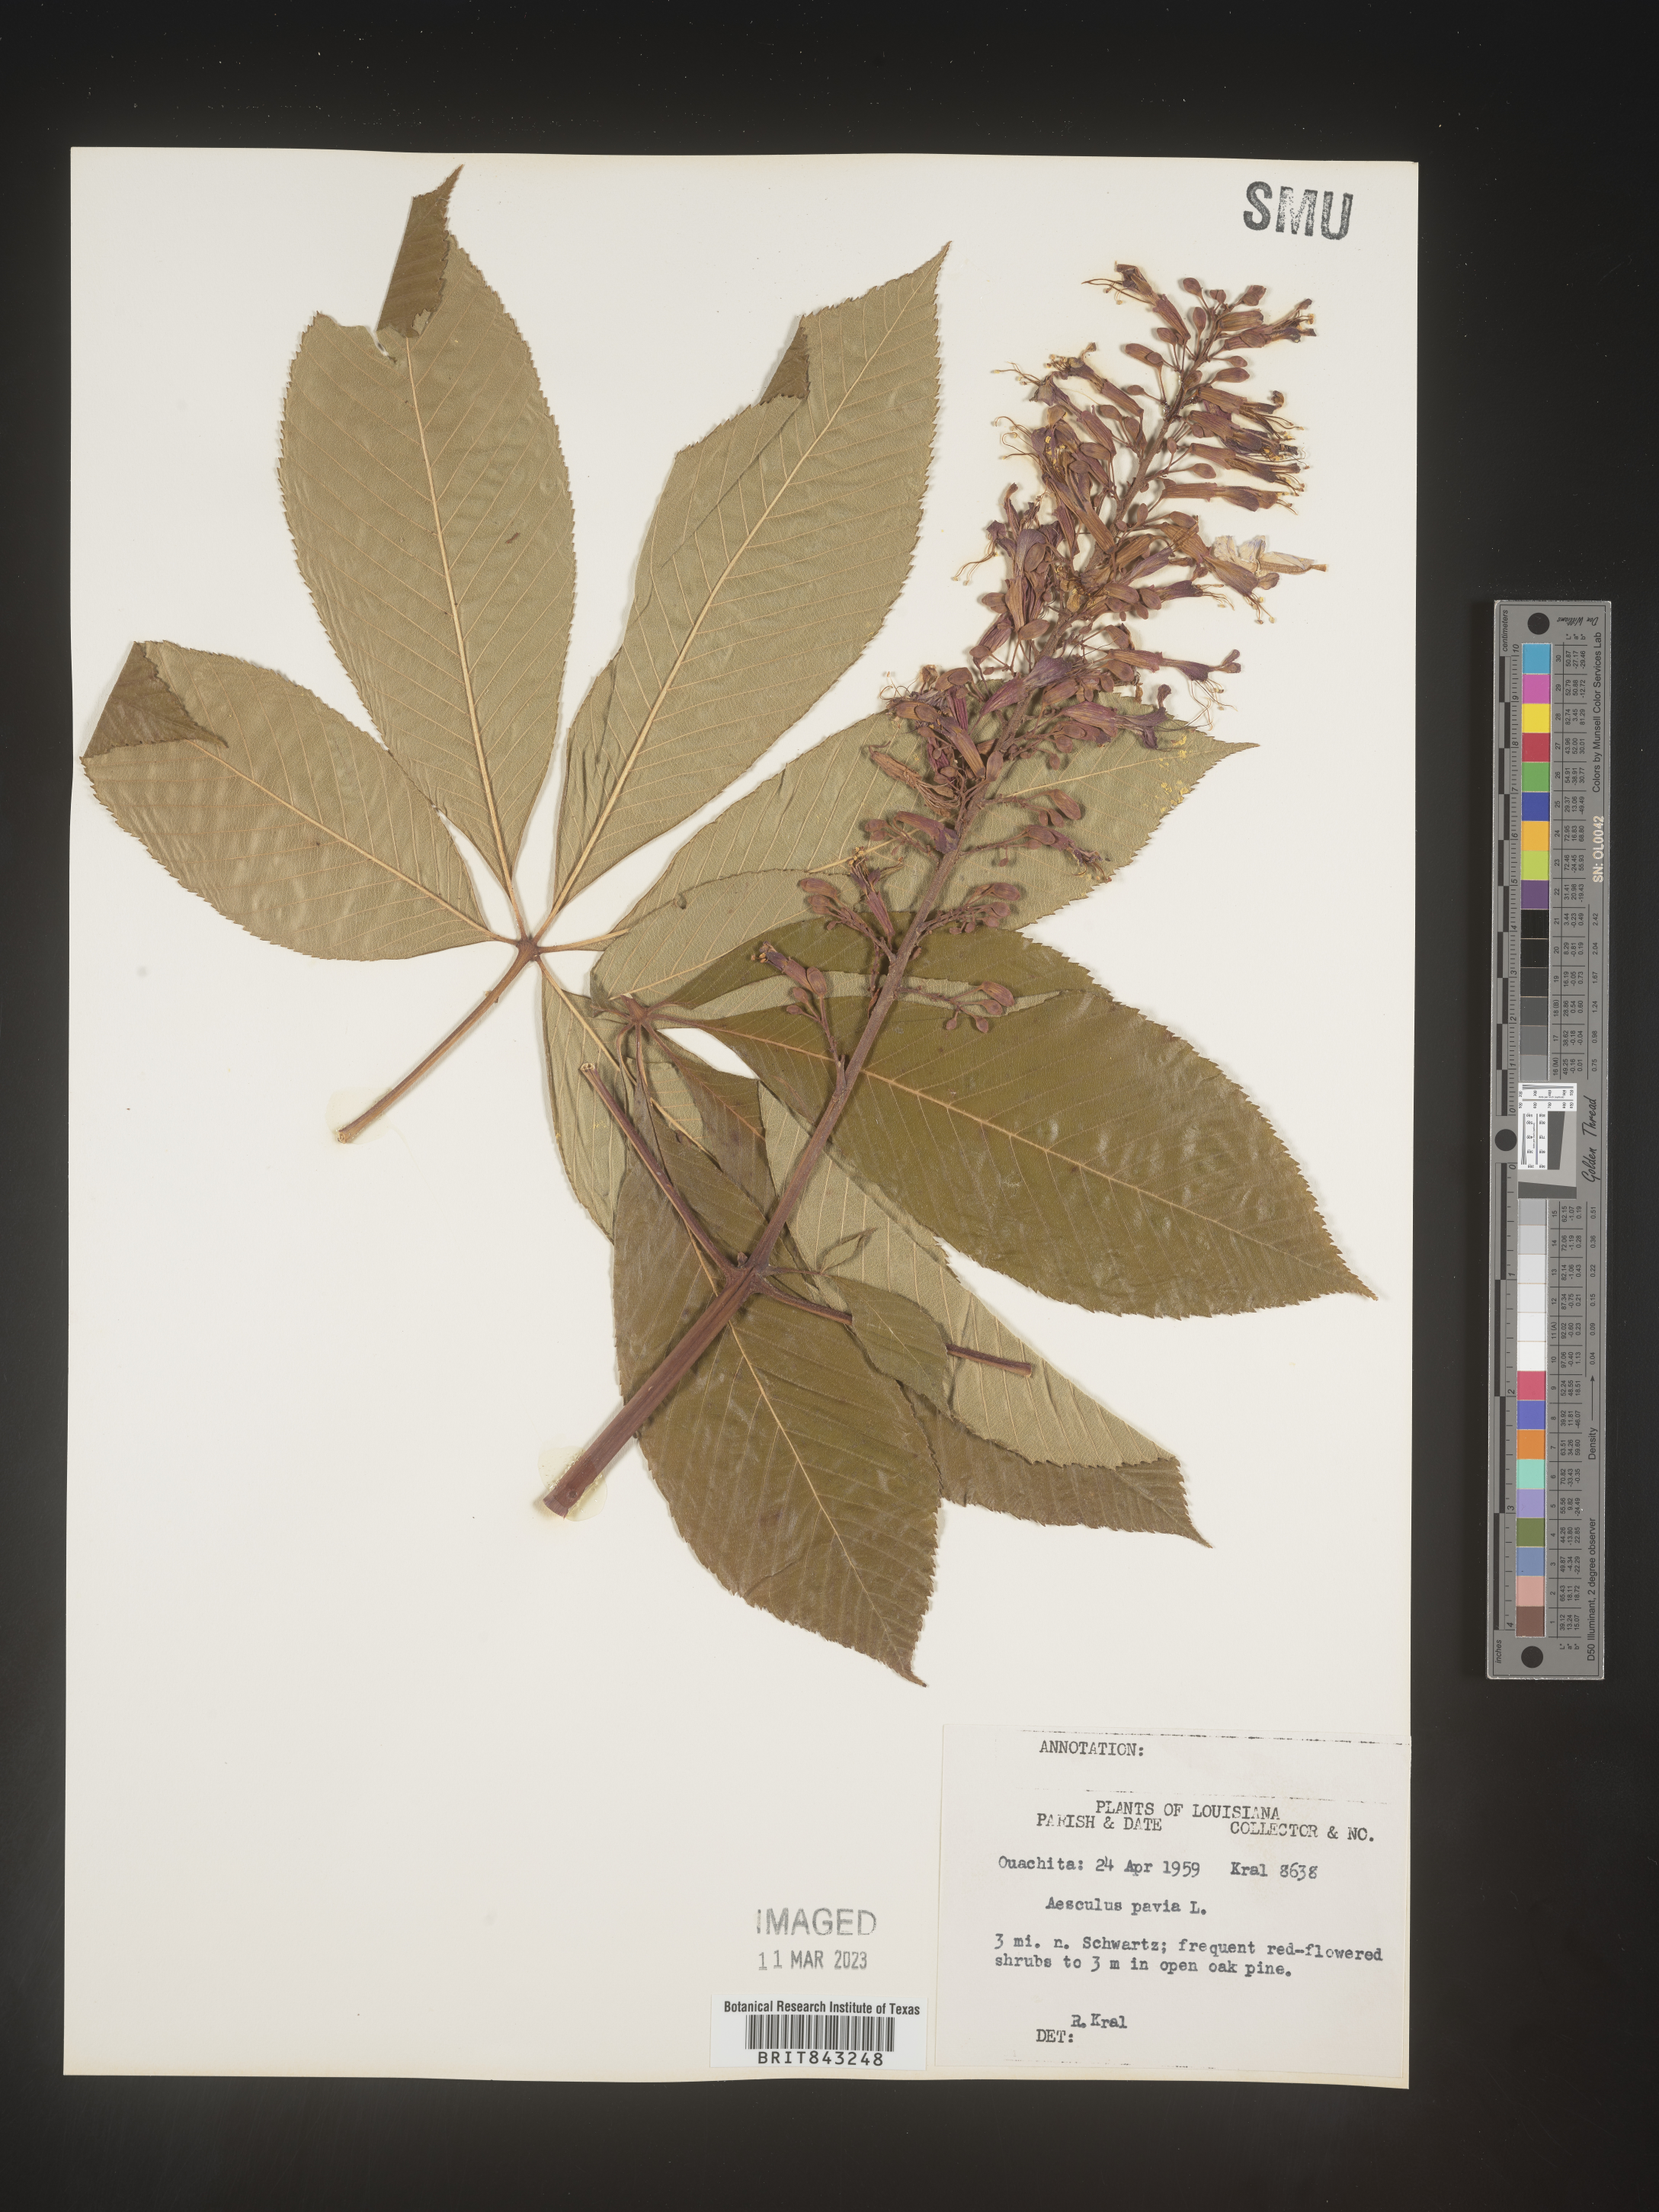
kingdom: Plantae
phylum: Tracheophyta
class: Magnoliopsida
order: Sapindales
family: Sapindaceae
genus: Aesculus
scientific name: Aesculus pavia
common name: Red buckeye
